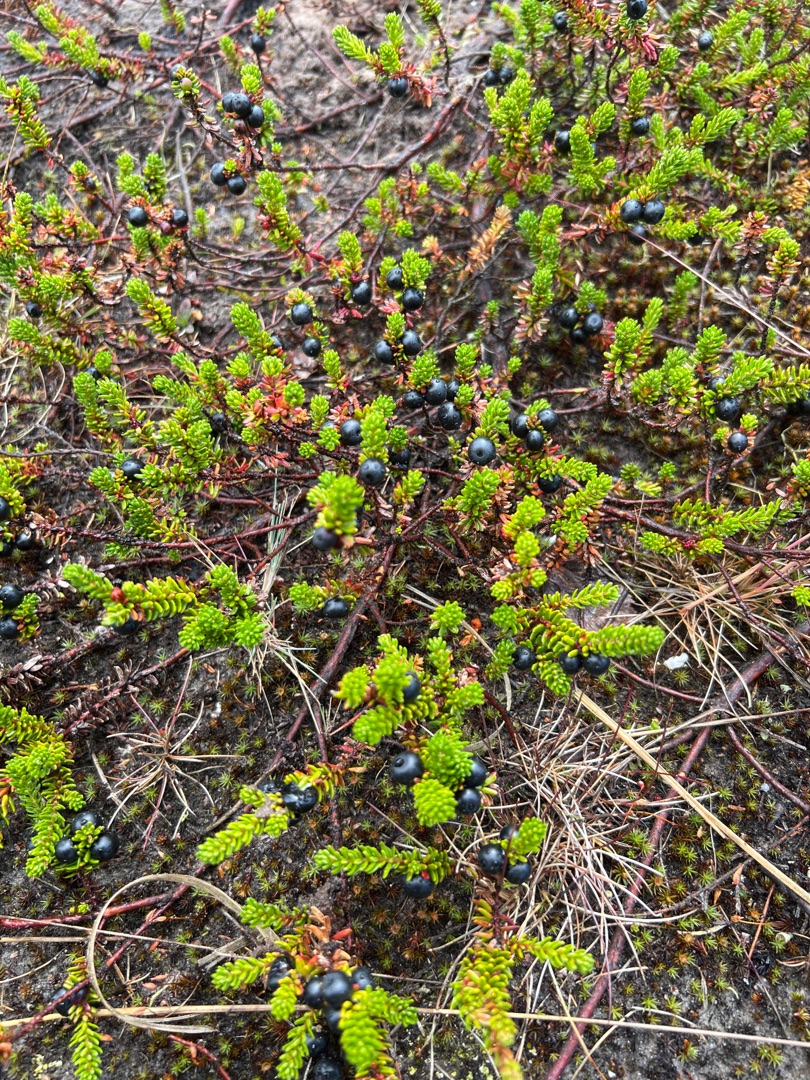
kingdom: Plantae
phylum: Tracheophyta
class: Magnoliopsida
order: Ericales
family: Ericaceae
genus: Empetrum
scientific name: Empetrum nigrum
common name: Revling
